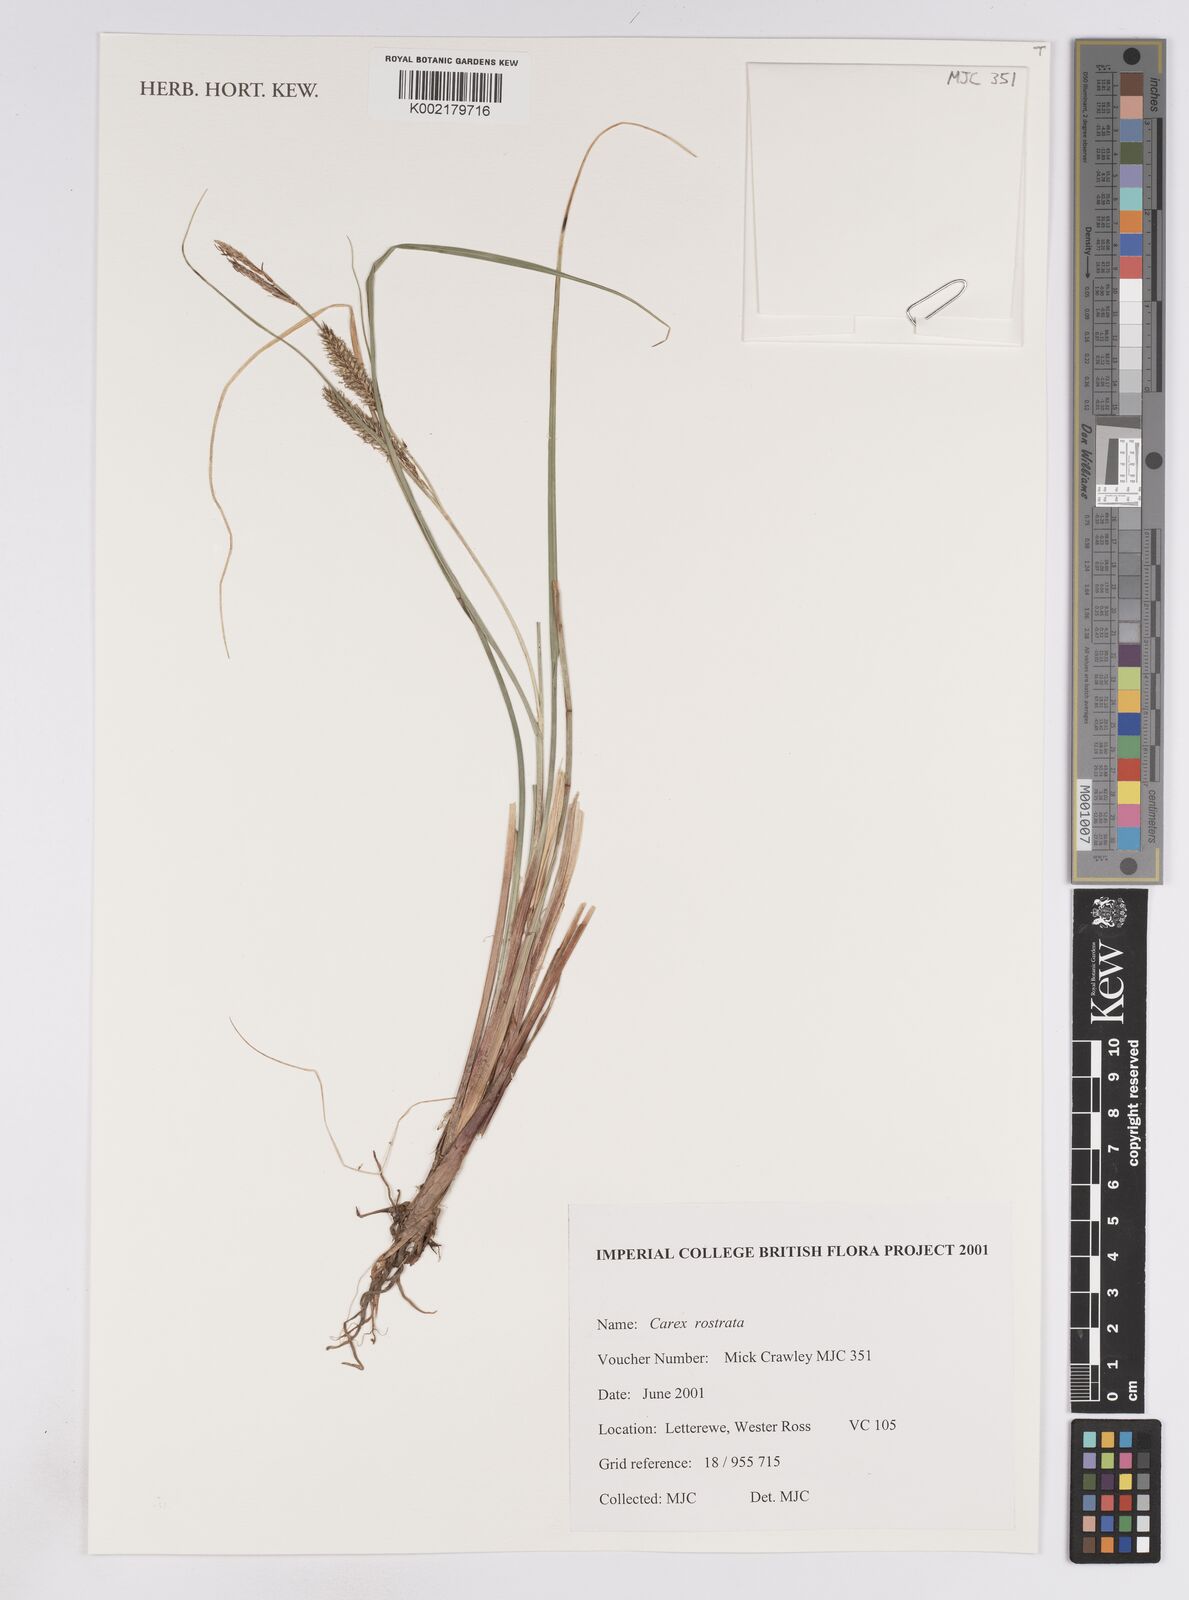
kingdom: Plantae
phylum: Tracheophyta
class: Liliopsida
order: Poales
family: Cyperaceae
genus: Carex
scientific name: Carex rostrata
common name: Bottle sedge
